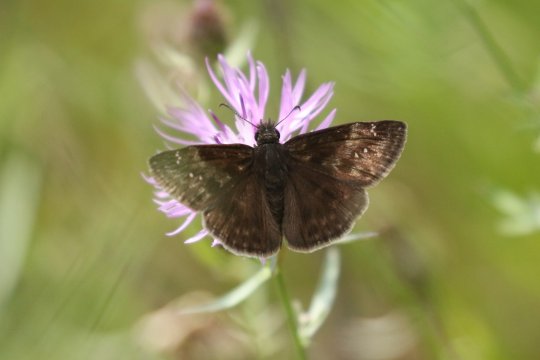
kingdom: Animalia
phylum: Arthropoda
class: Insecta
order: Lepidoptera
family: Hesperiidae
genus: Gesta
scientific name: Gesta
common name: Wild Indigo Duskywing
